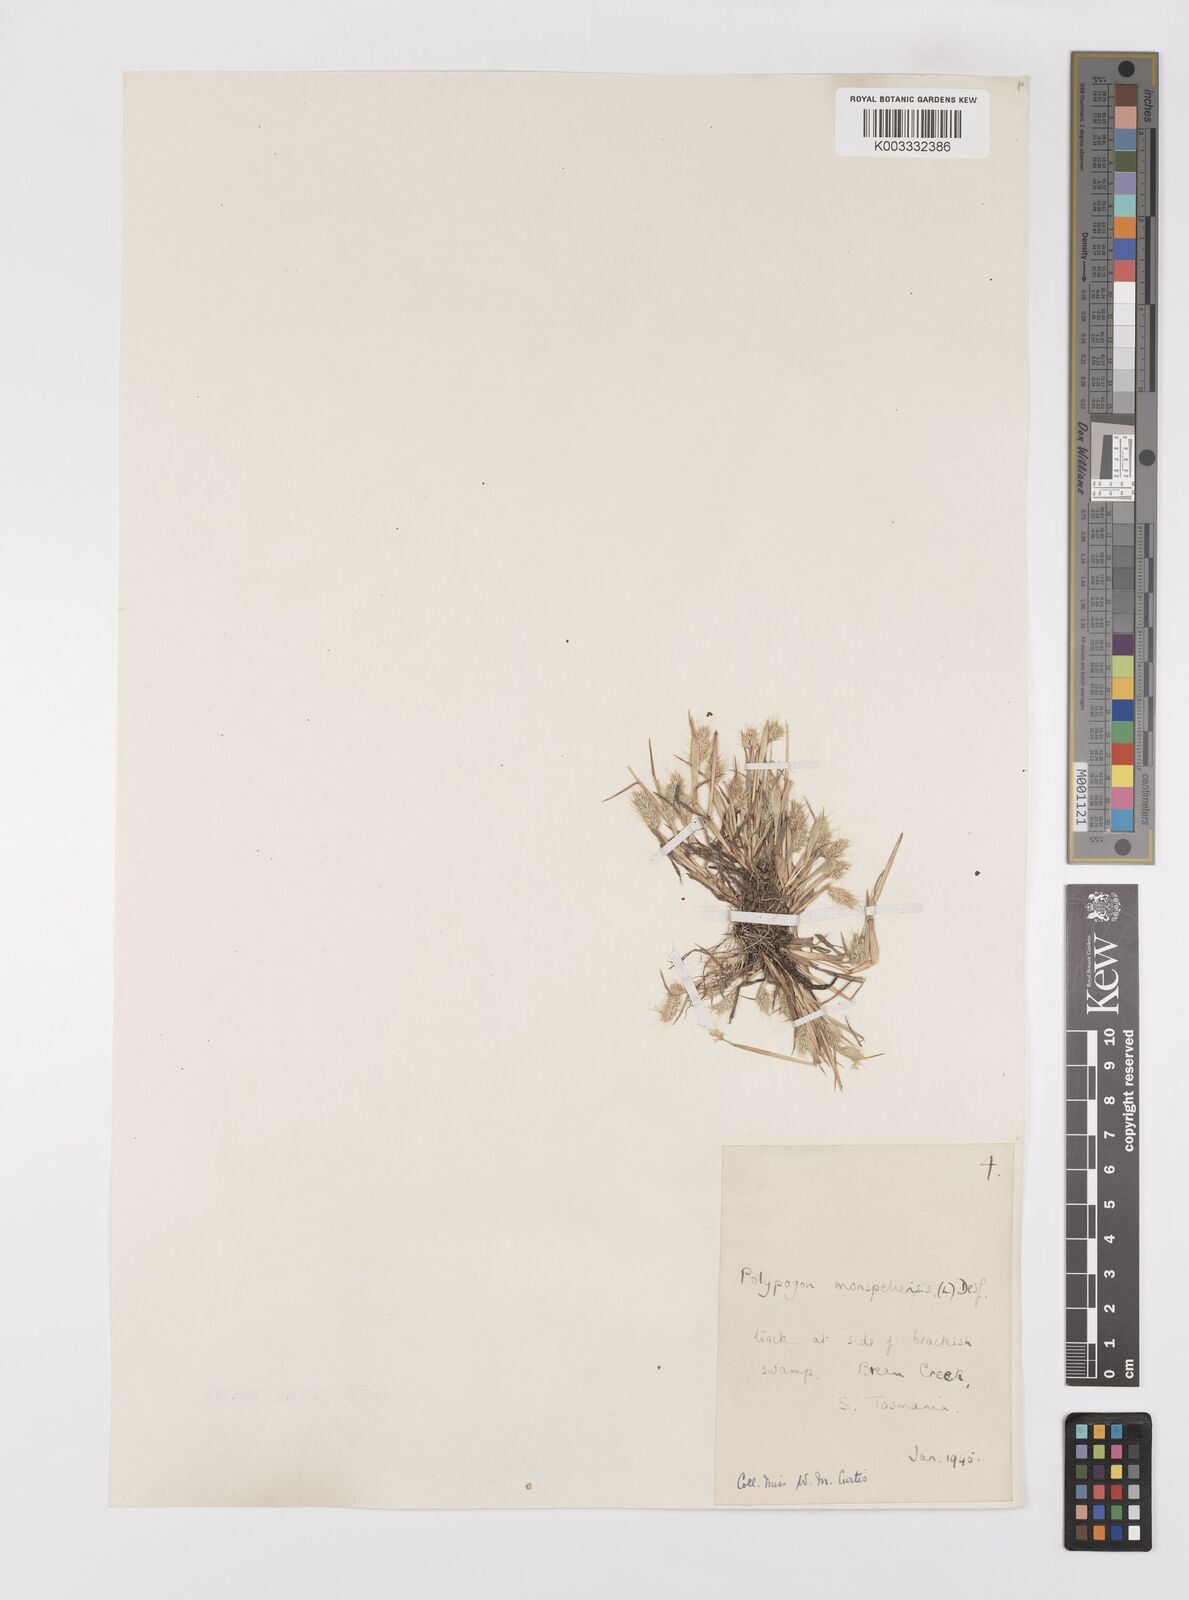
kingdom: Plantae
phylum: Tracheophyta
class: Liliopsida
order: Poales
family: Poaceae
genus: Polypogon
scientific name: Polypogon monspeliensis
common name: Annual rabbitsfoot grass
